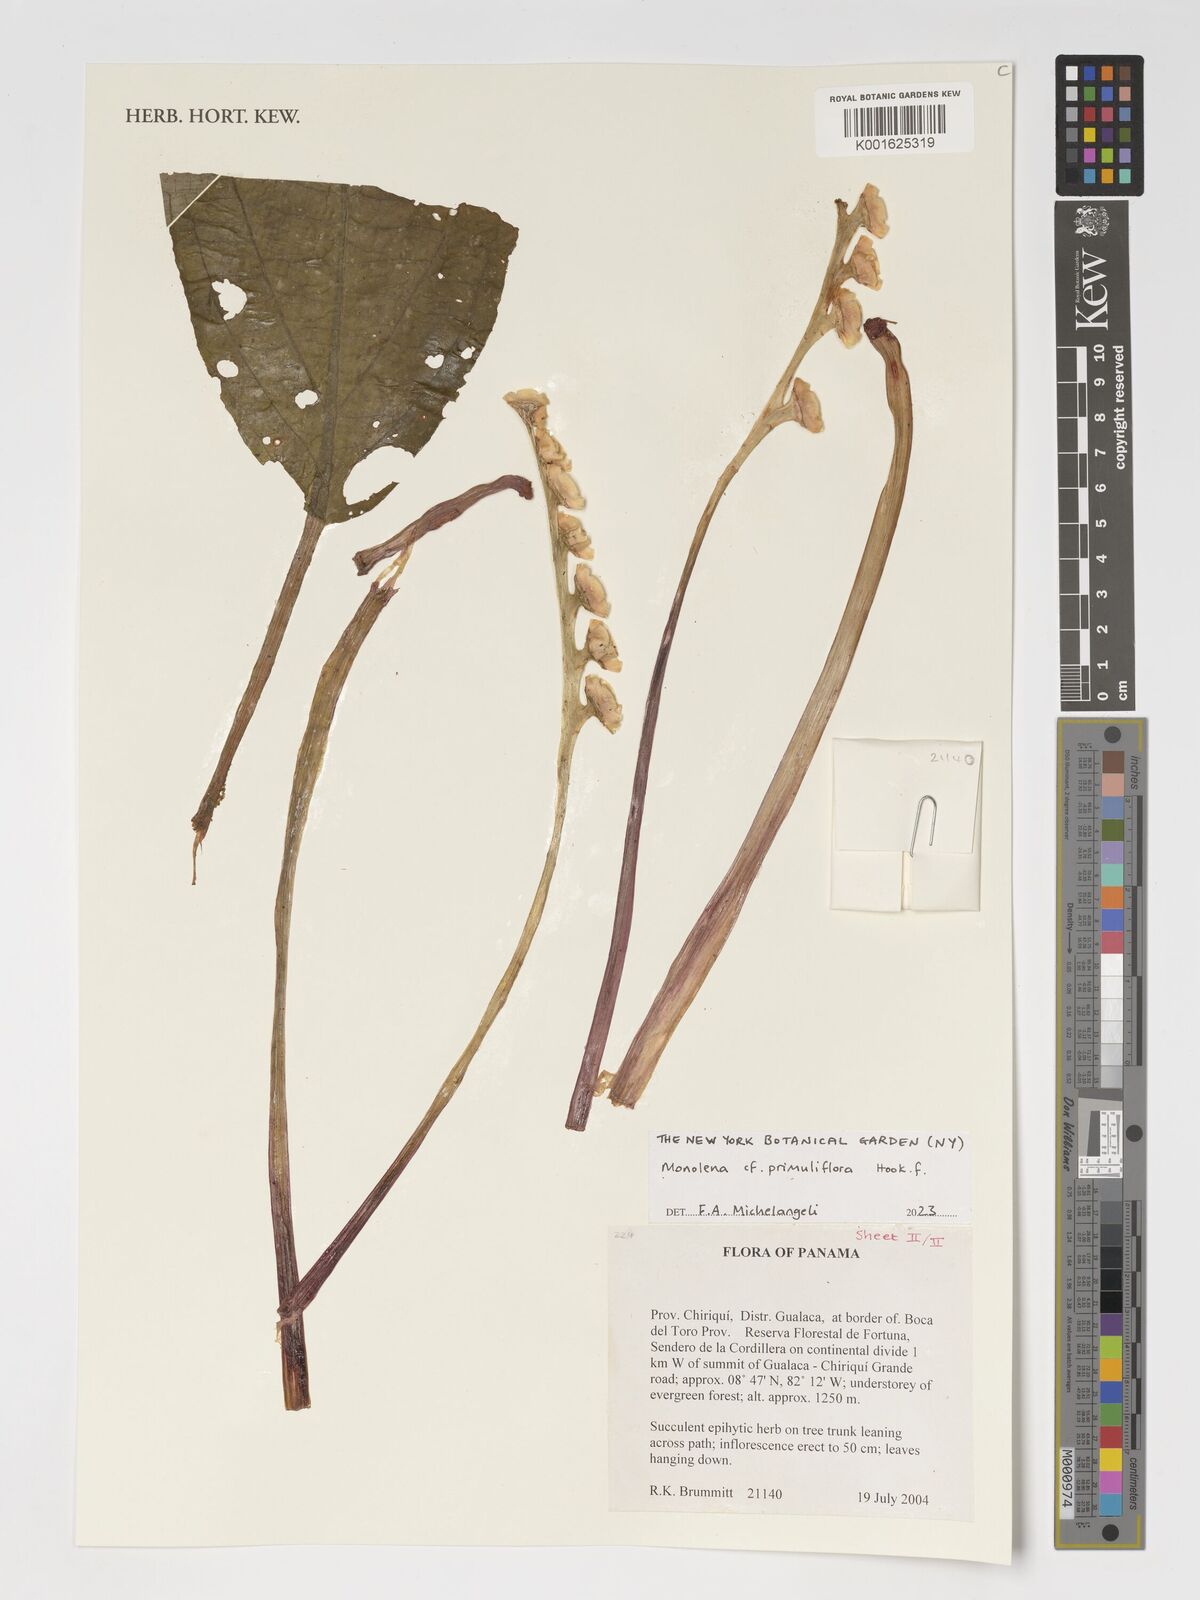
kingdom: Plantae
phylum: Tracheophyta
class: Magnoliopsida
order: Myrtales
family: Melastomataceae
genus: Monolena
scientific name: Monolena primuliflora
